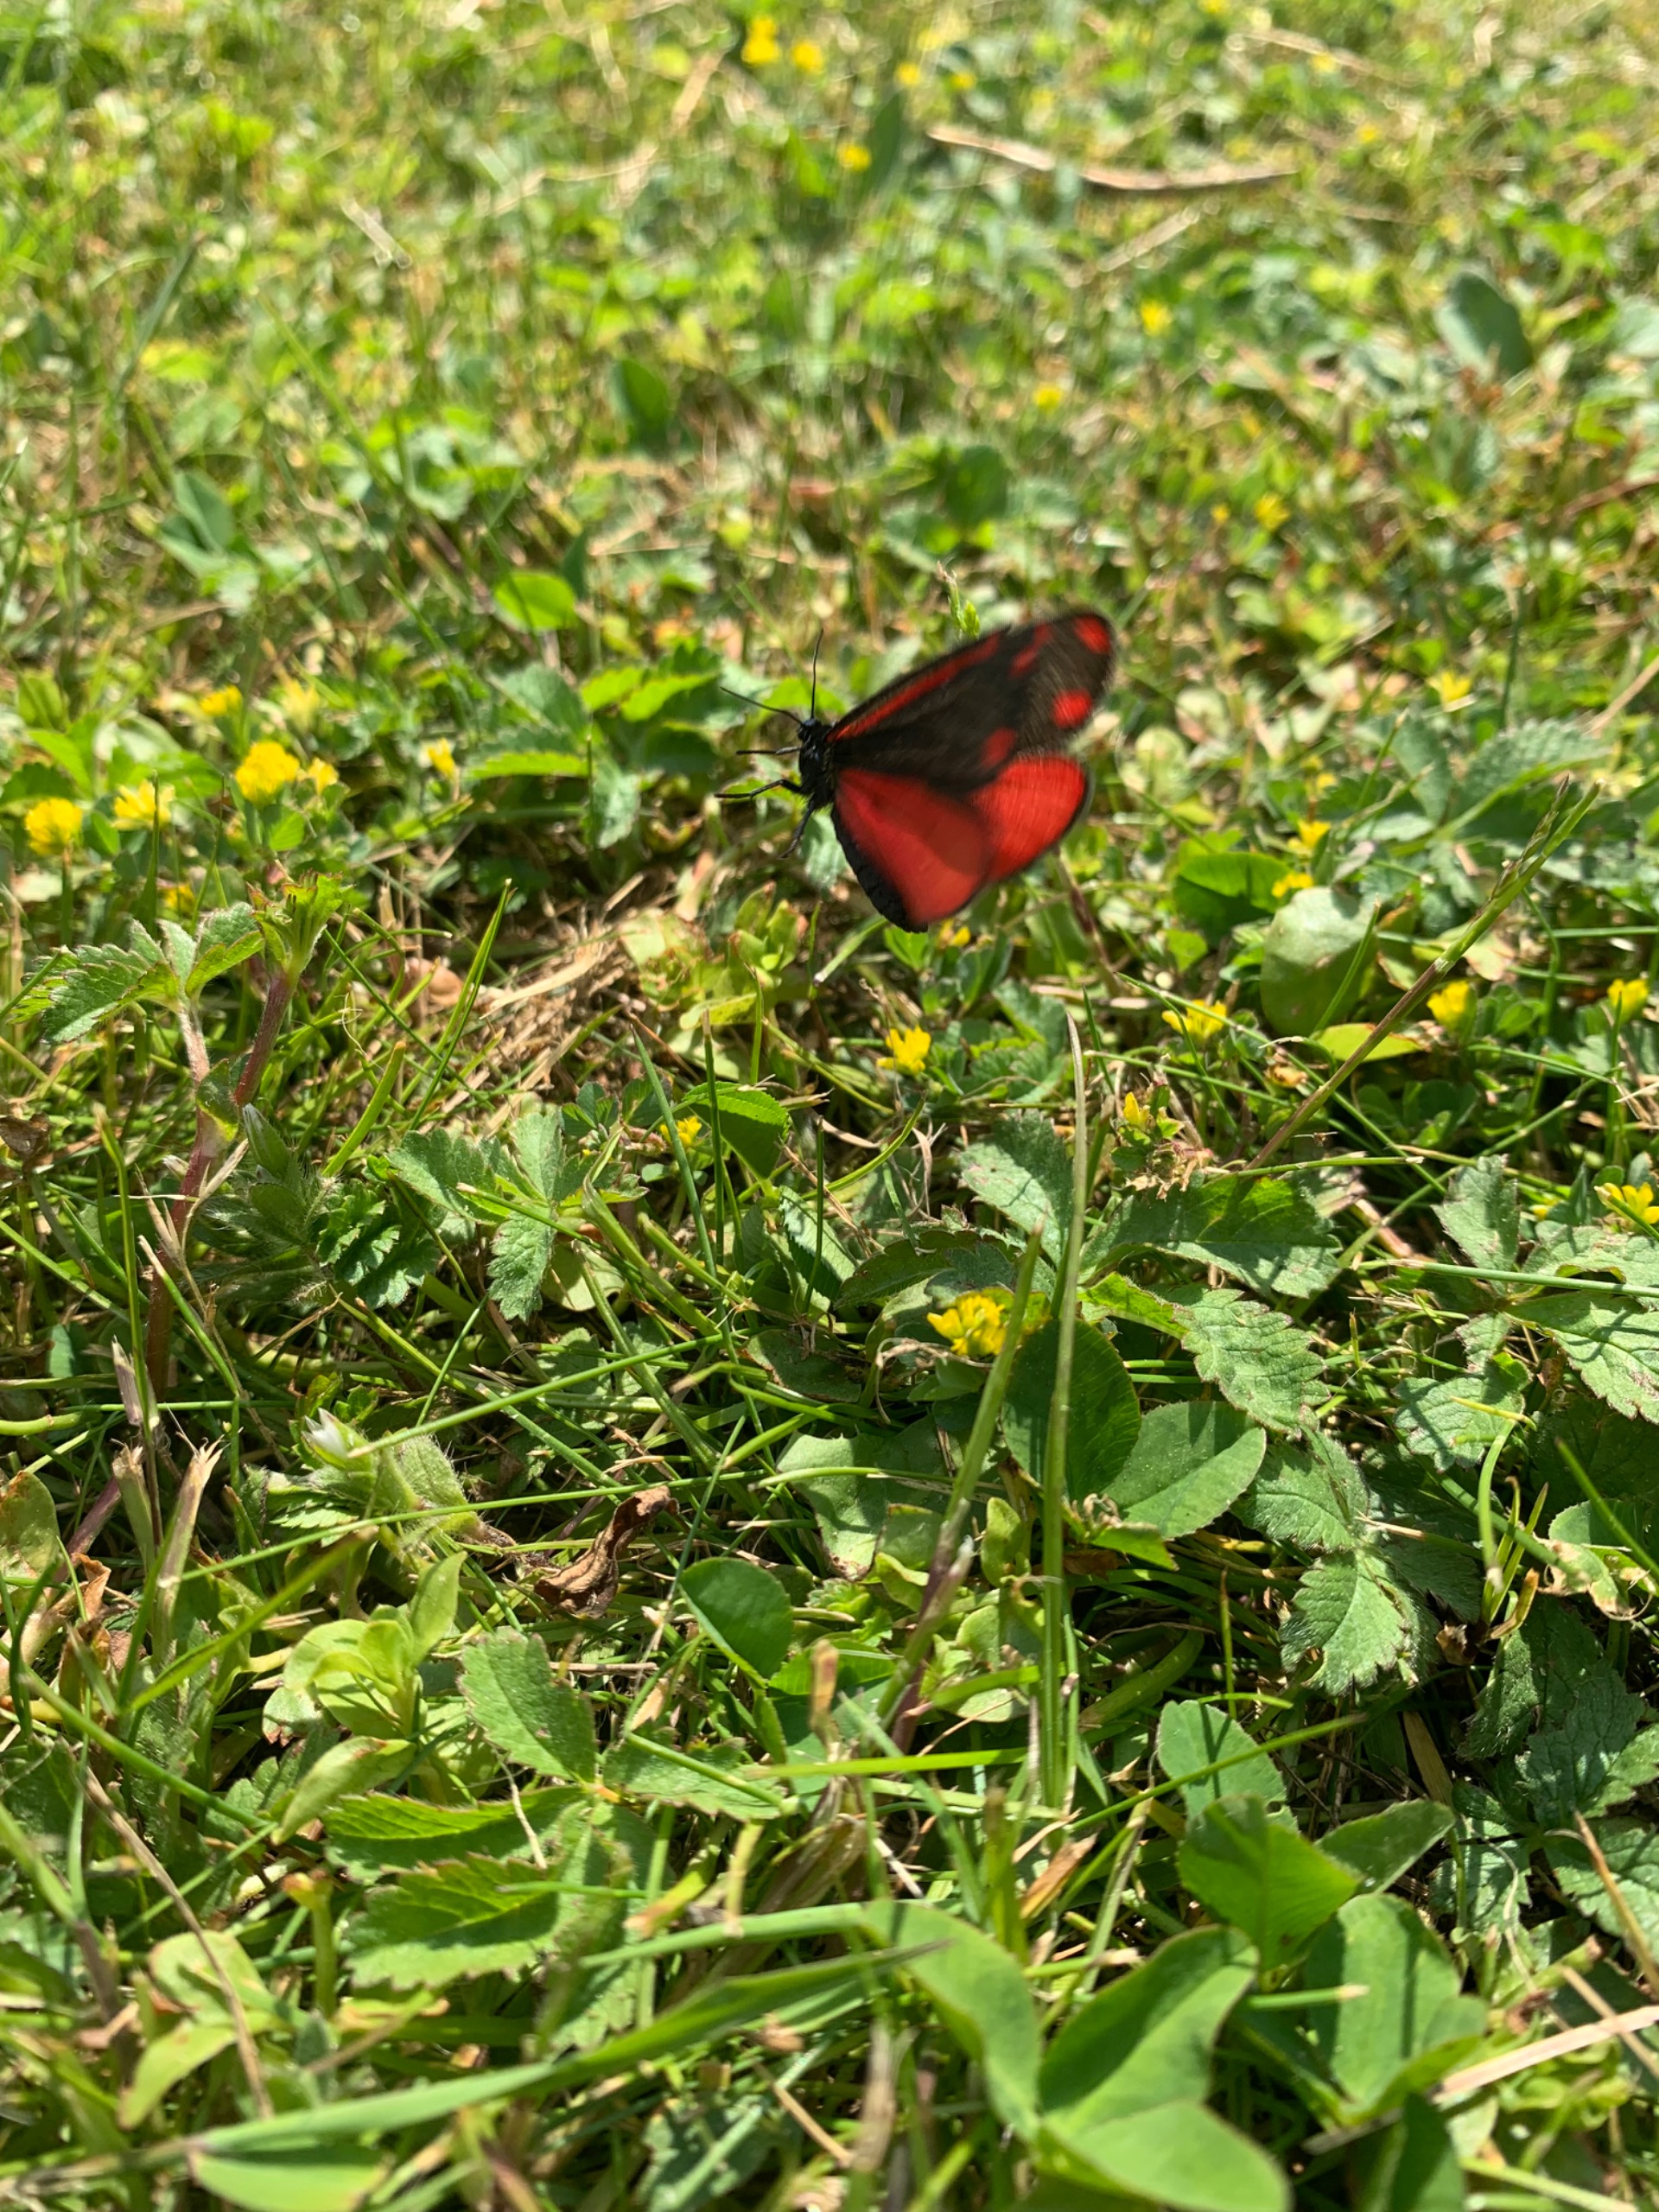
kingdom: Animalia
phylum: Arthropoda
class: Insecta
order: Lepidoptera
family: Erebidae
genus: Tyria
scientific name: Tyria jacobaeae
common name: Blodplet
